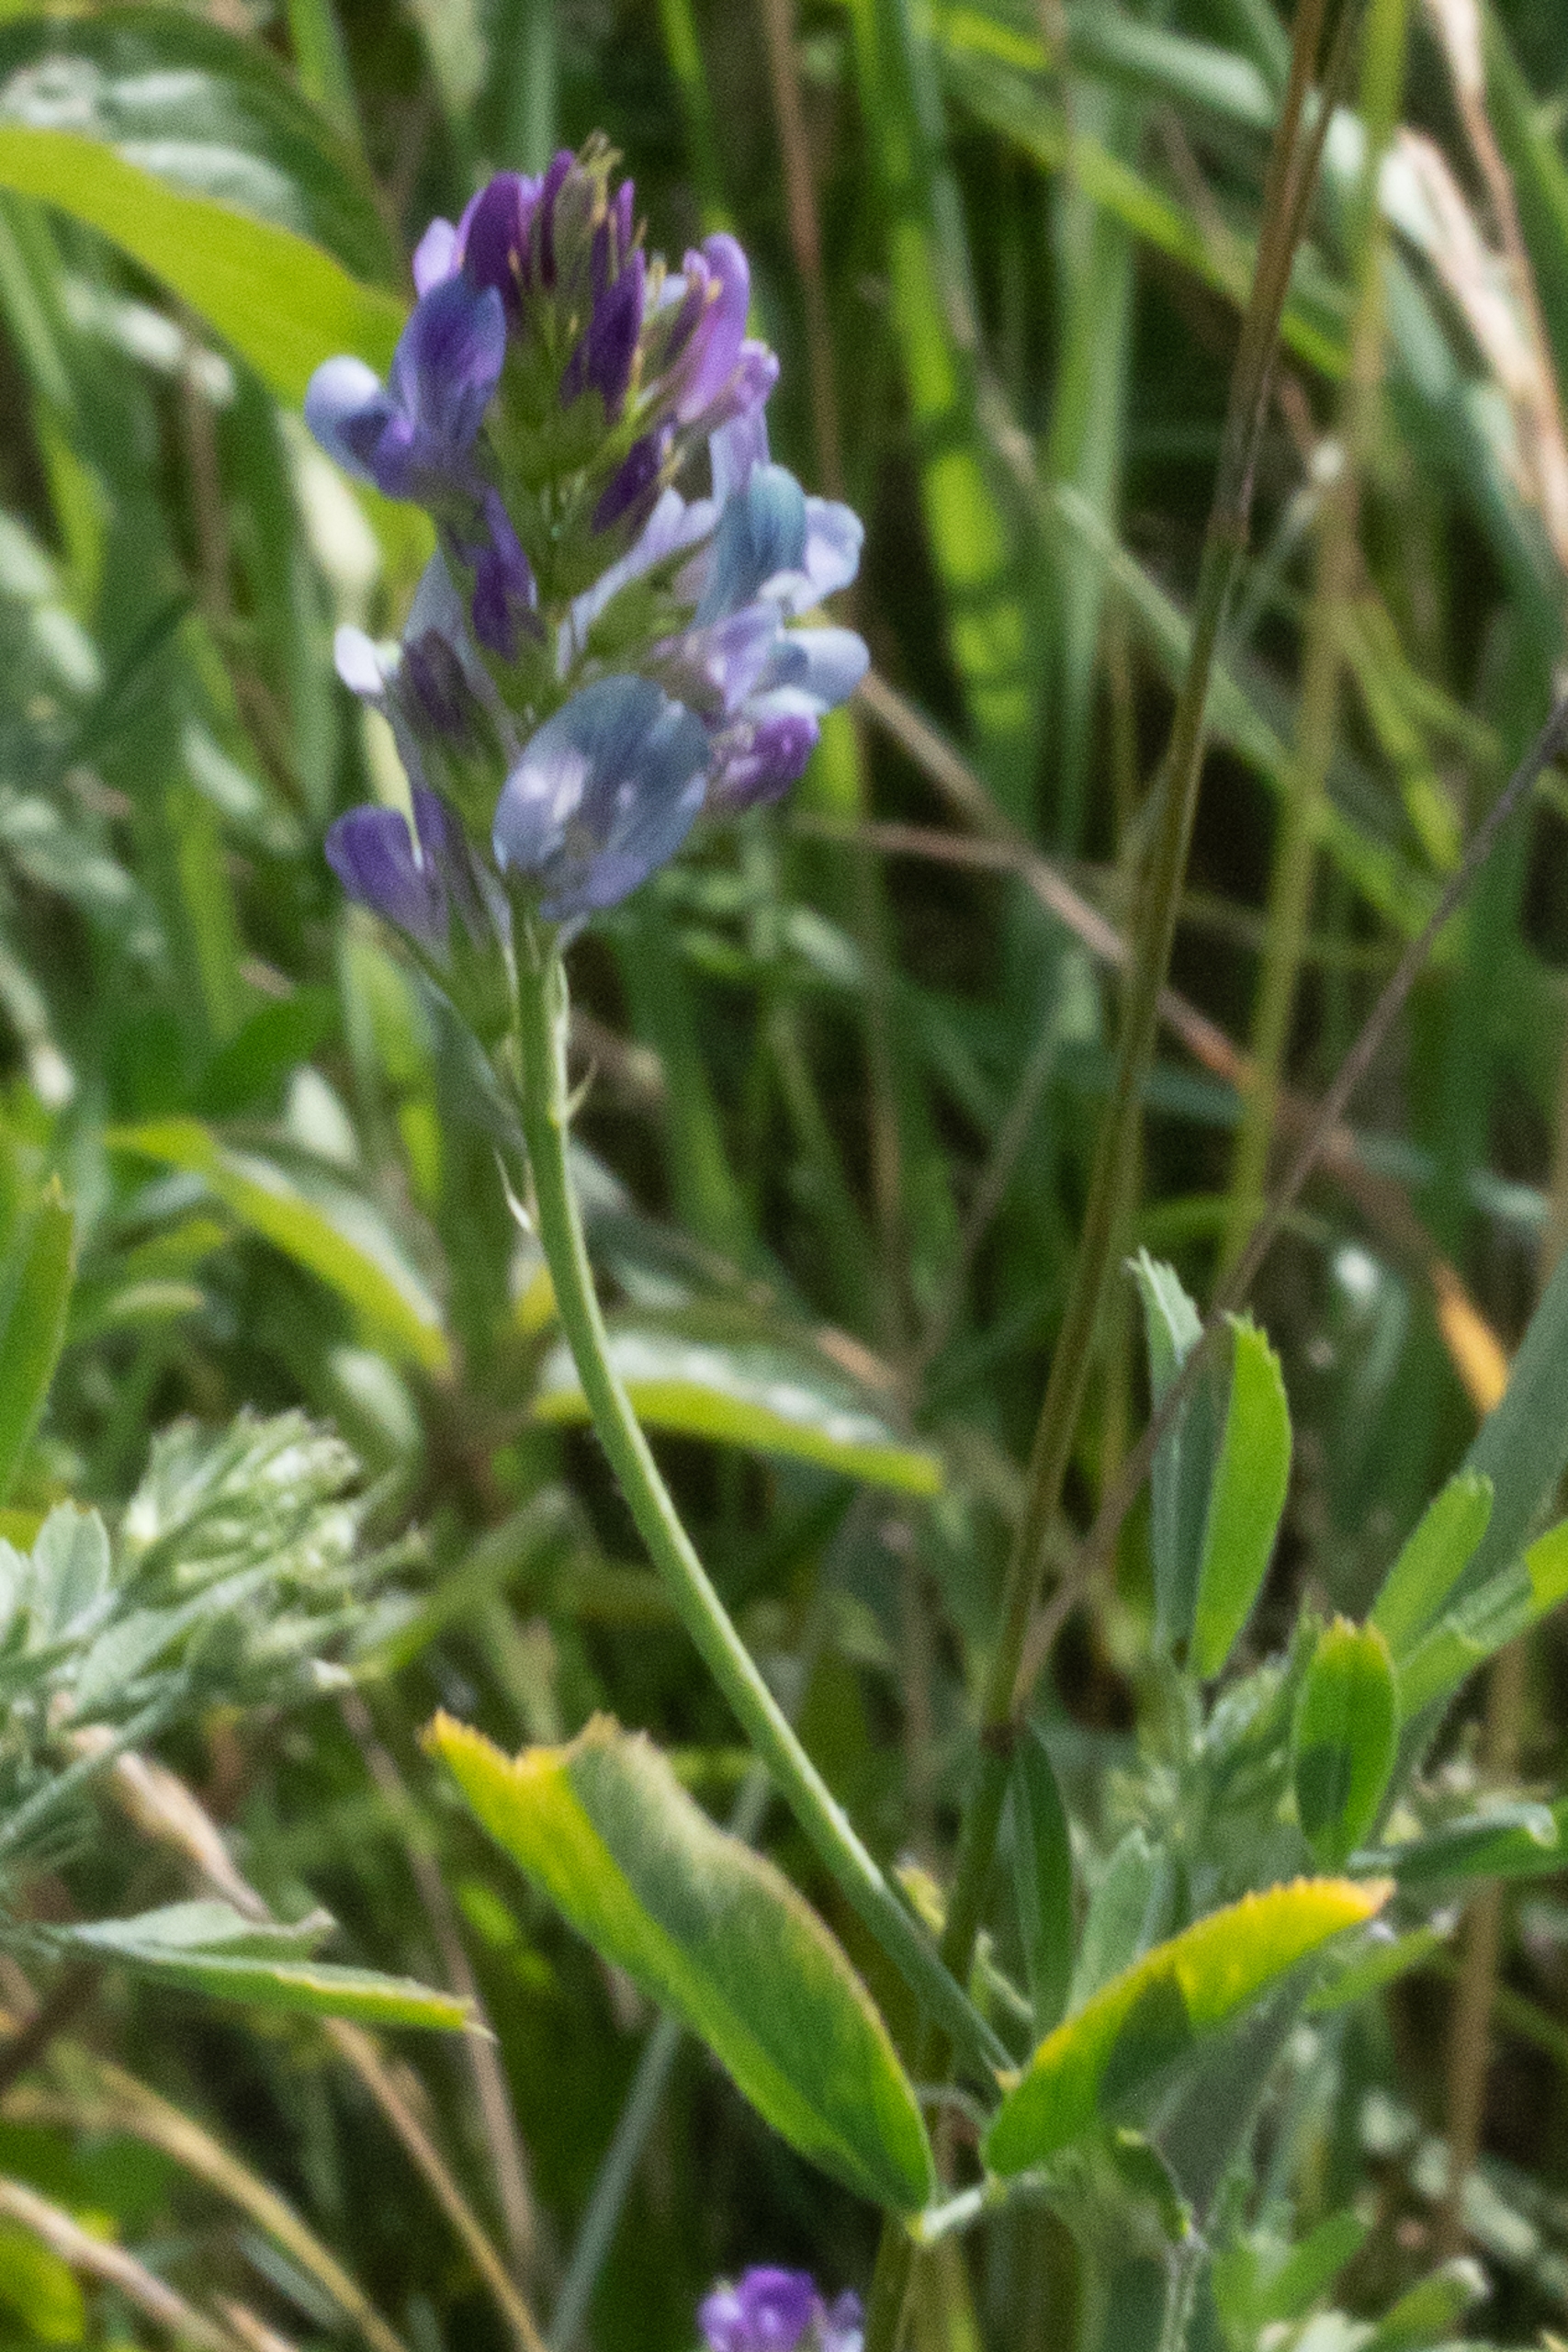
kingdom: Plantae
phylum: Tracheophyta
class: Magnoliopsida
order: Fabales
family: Fabaceae
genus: Medicago
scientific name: Medicago sativa
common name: Foderlucerne
